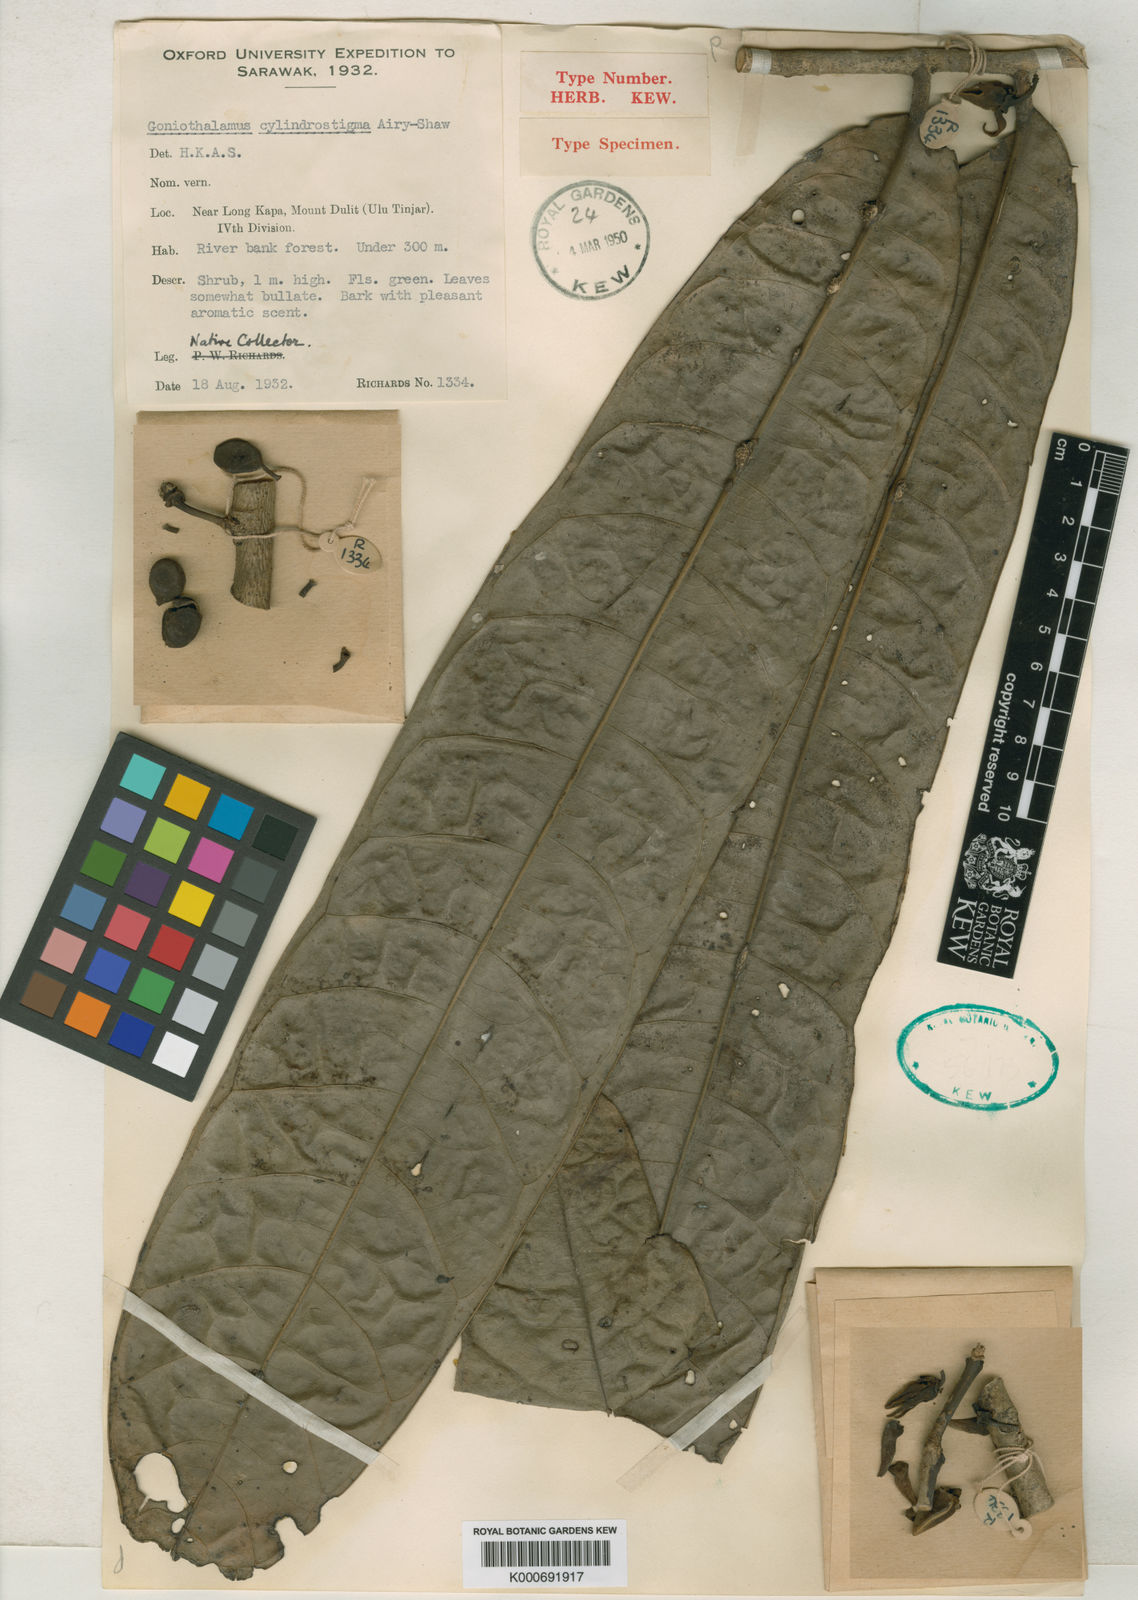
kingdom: Plantae
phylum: Tracheophyta
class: Magnoliopsida
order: Magnoliales
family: Annonaceae
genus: Goniothalamus
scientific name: Goniothalamus cylindrostigma
